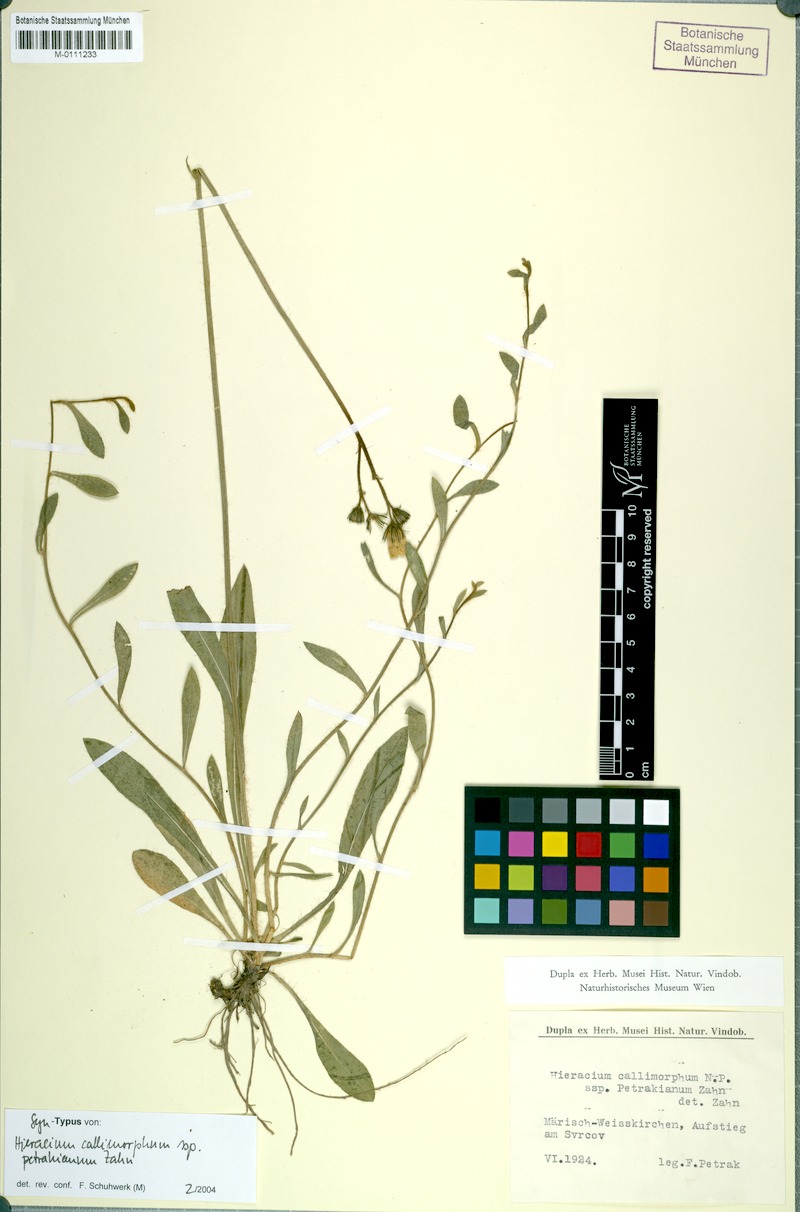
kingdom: Plantae
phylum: Tracheophyta
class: Magnoliopsida
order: Asterales
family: Asteraceae
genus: Pilosella
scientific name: Pilosella iserana
